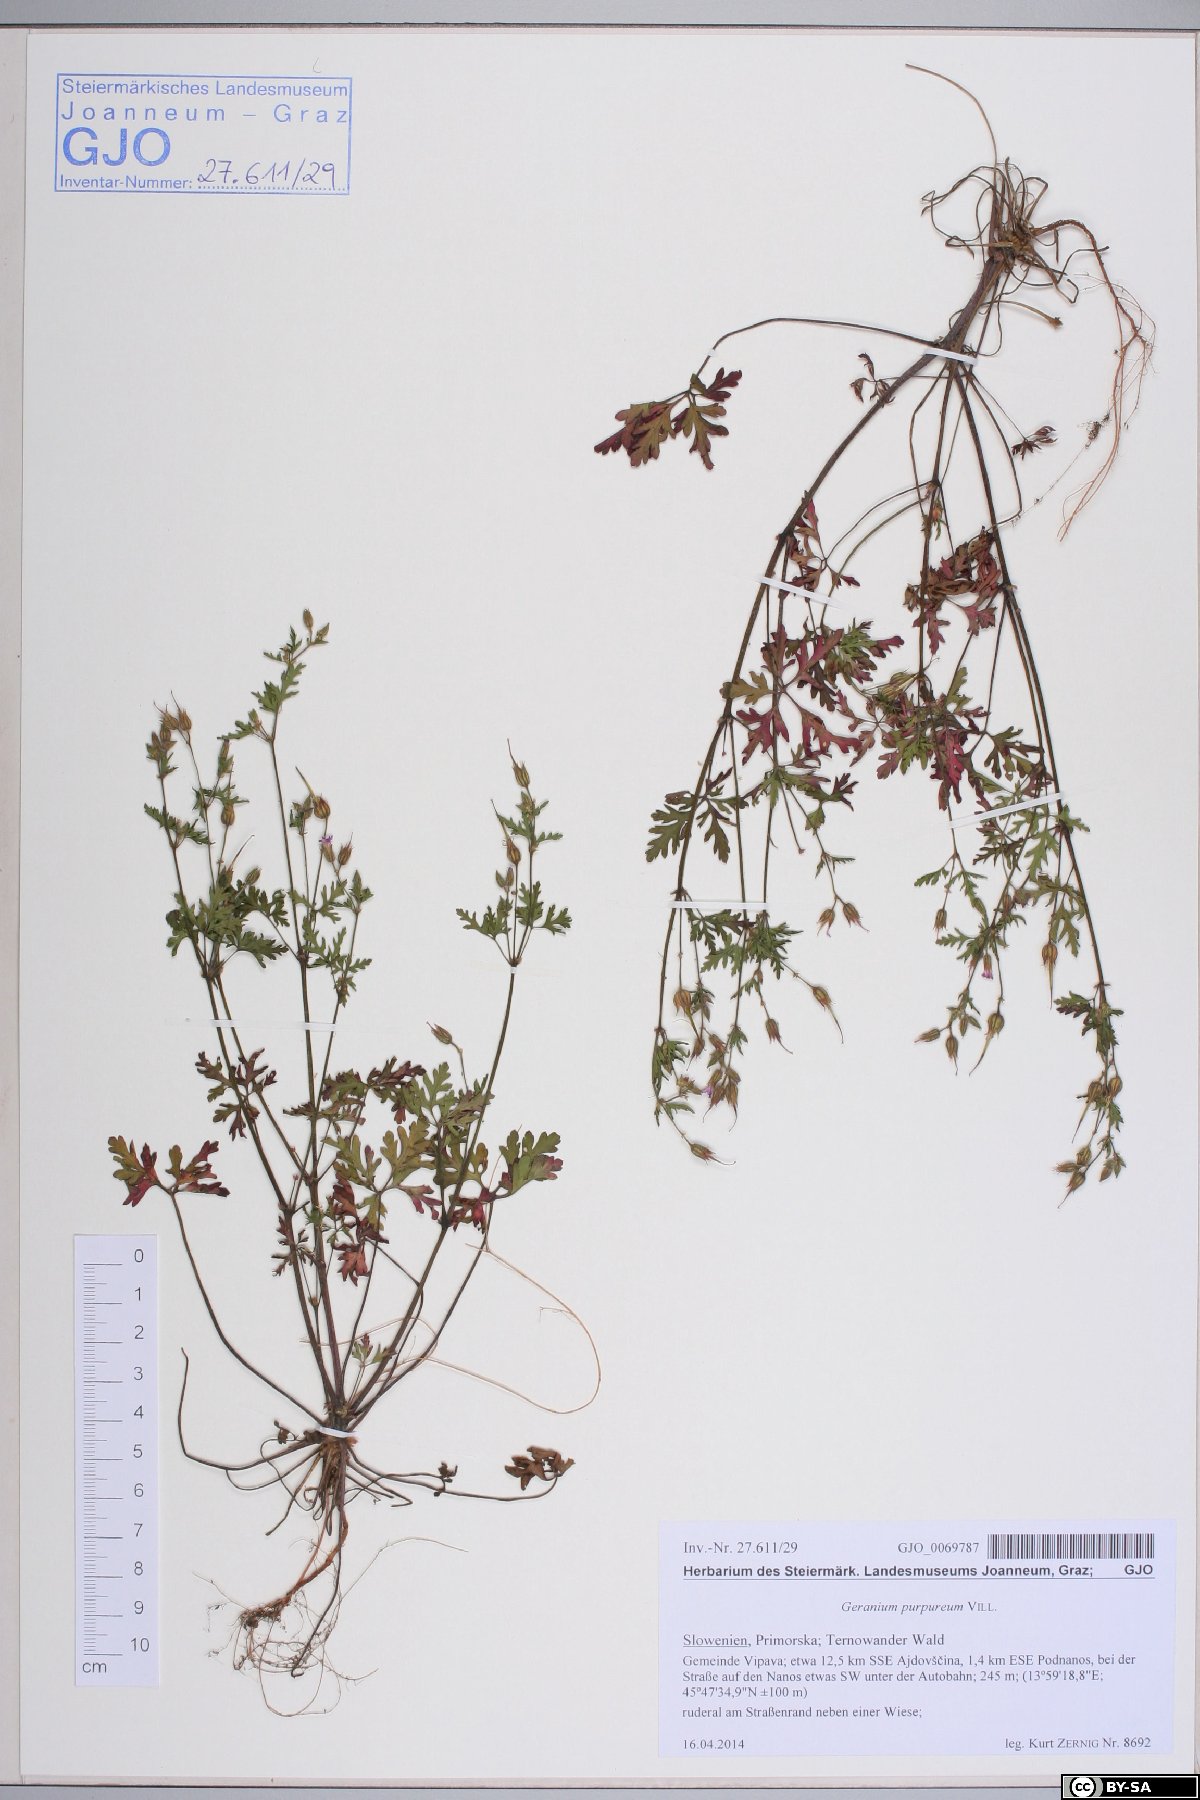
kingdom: Plantae
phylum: Tracheophyta
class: Magnoliopsida
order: Geraniales
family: Geraniaceae
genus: Geranium
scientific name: Geranium purpureum
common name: Little-robin
